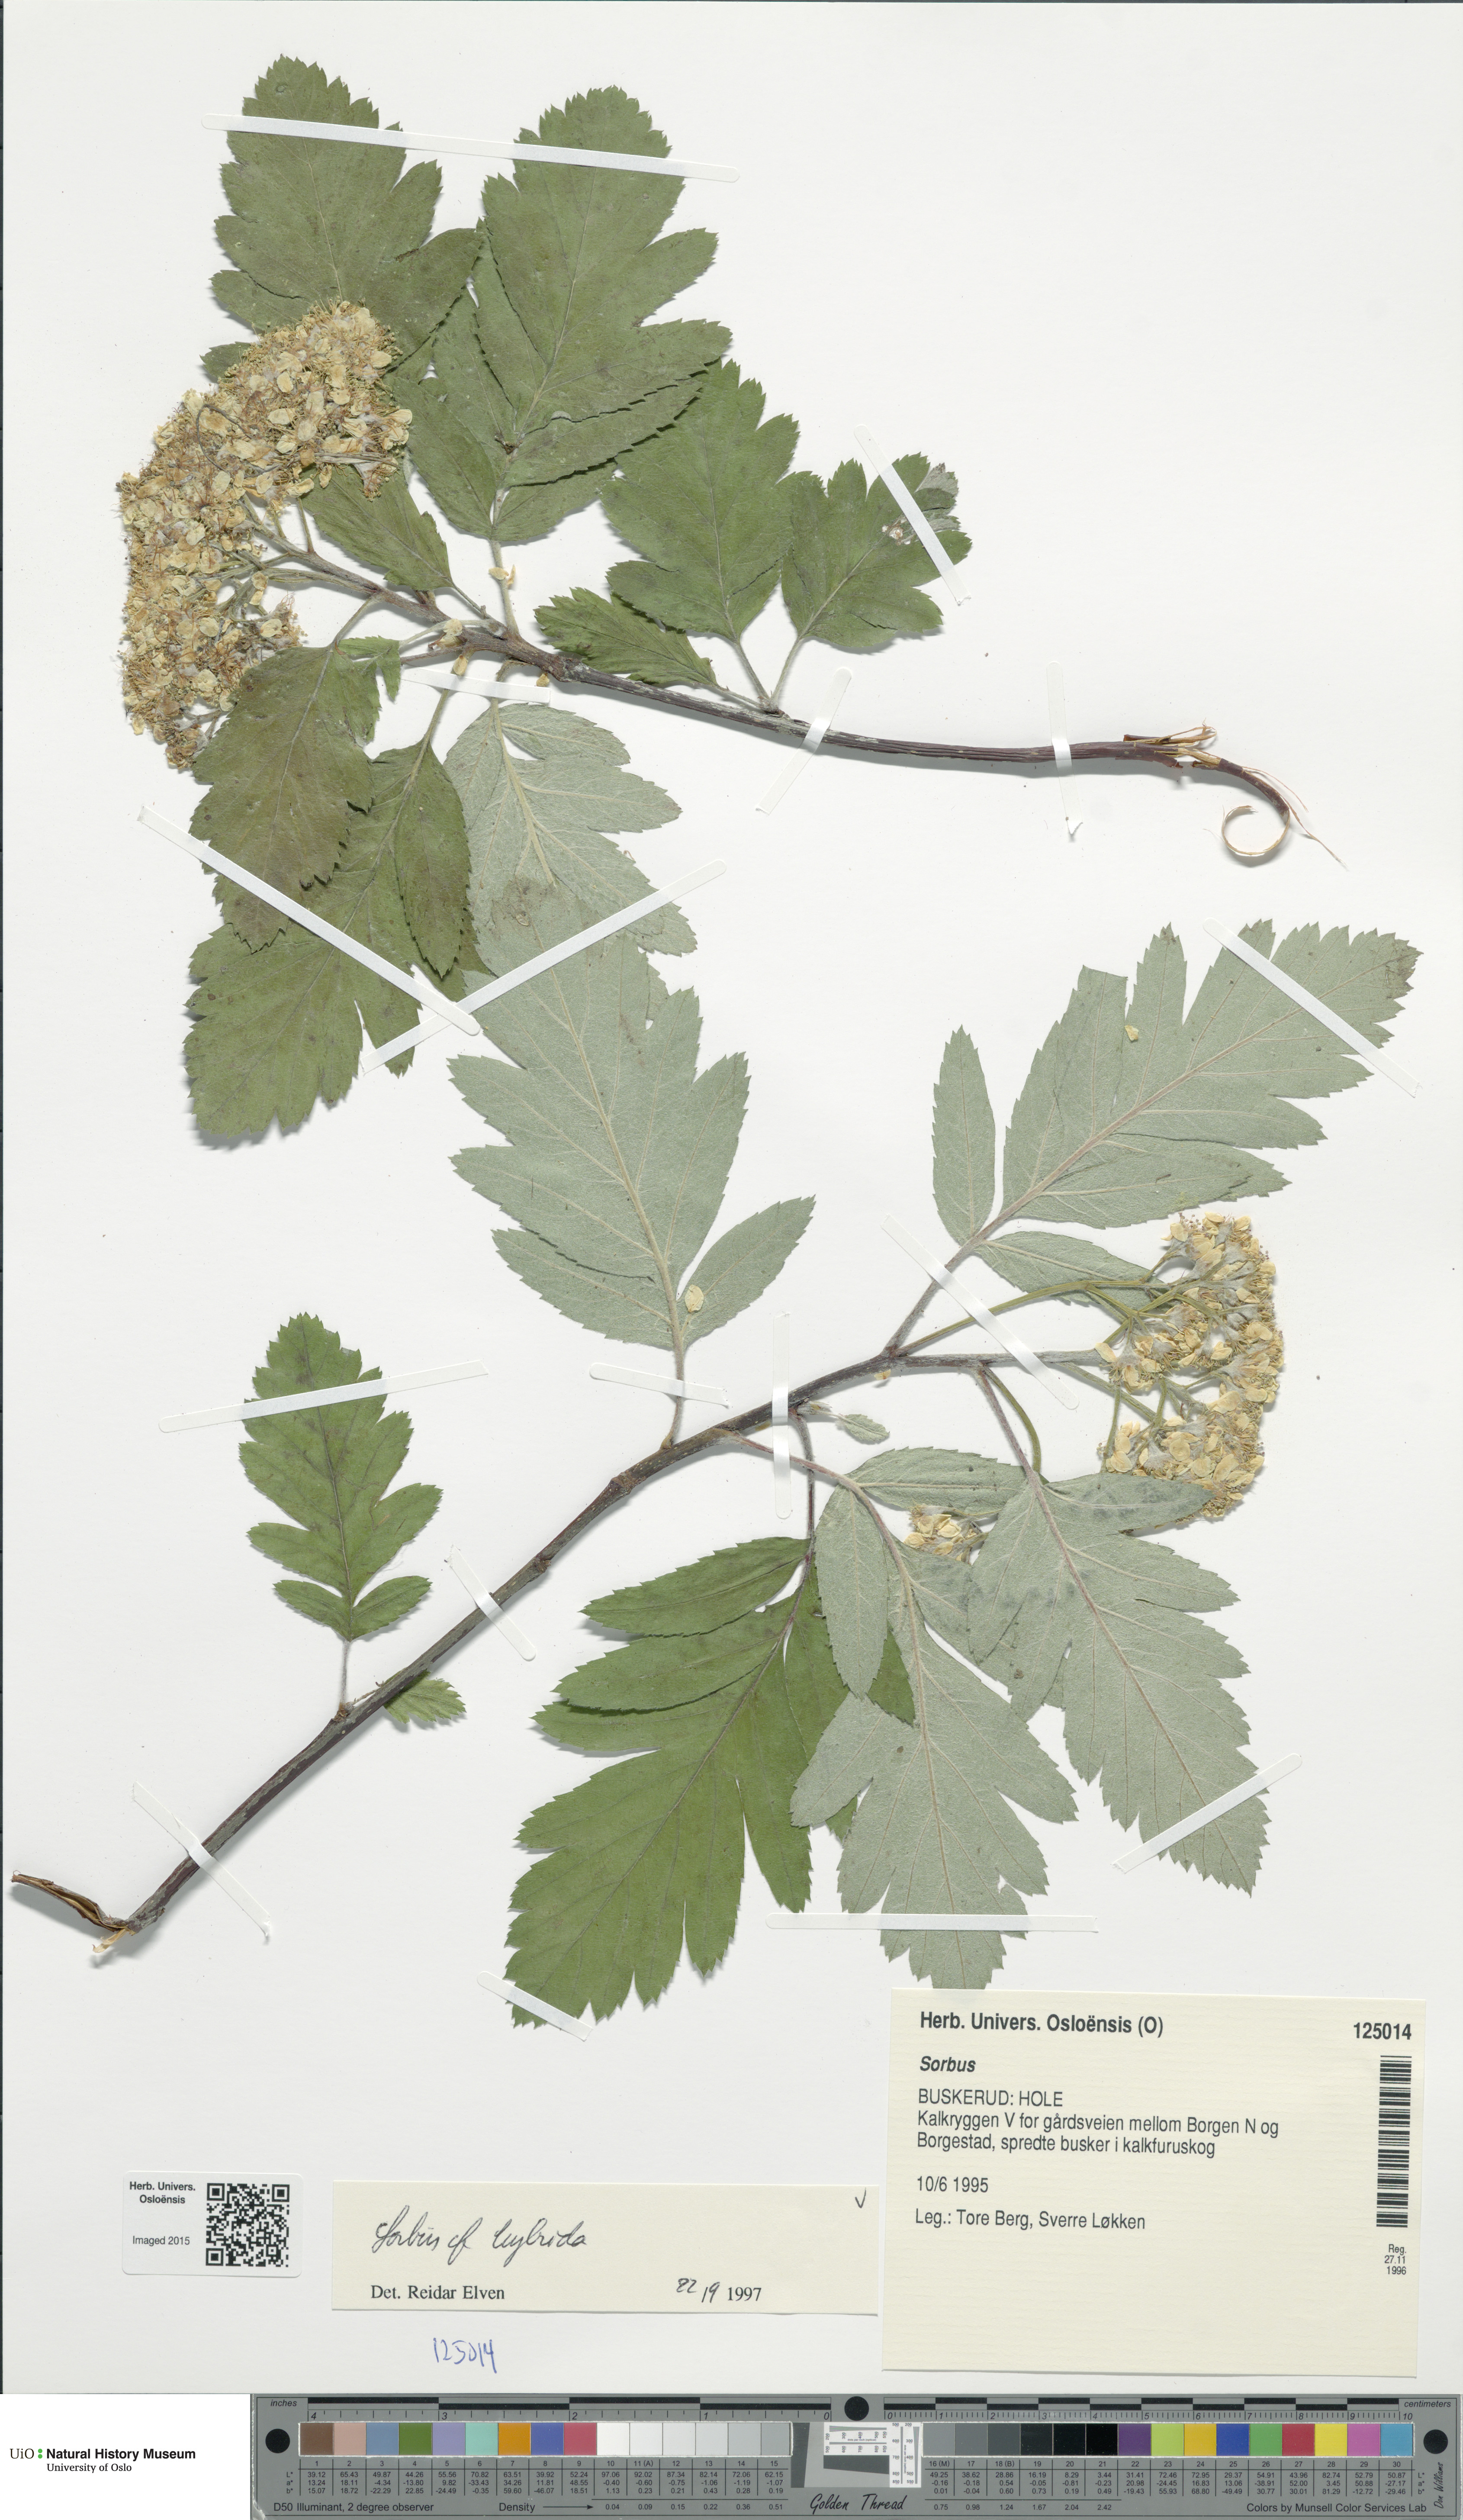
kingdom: Plantae
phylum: Tracheophyta
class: Magnoliopsida
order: Rosales
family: Rosaceae
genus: Hedlundia
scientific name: Hedlundia hybrida
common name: Swedish service-tree
